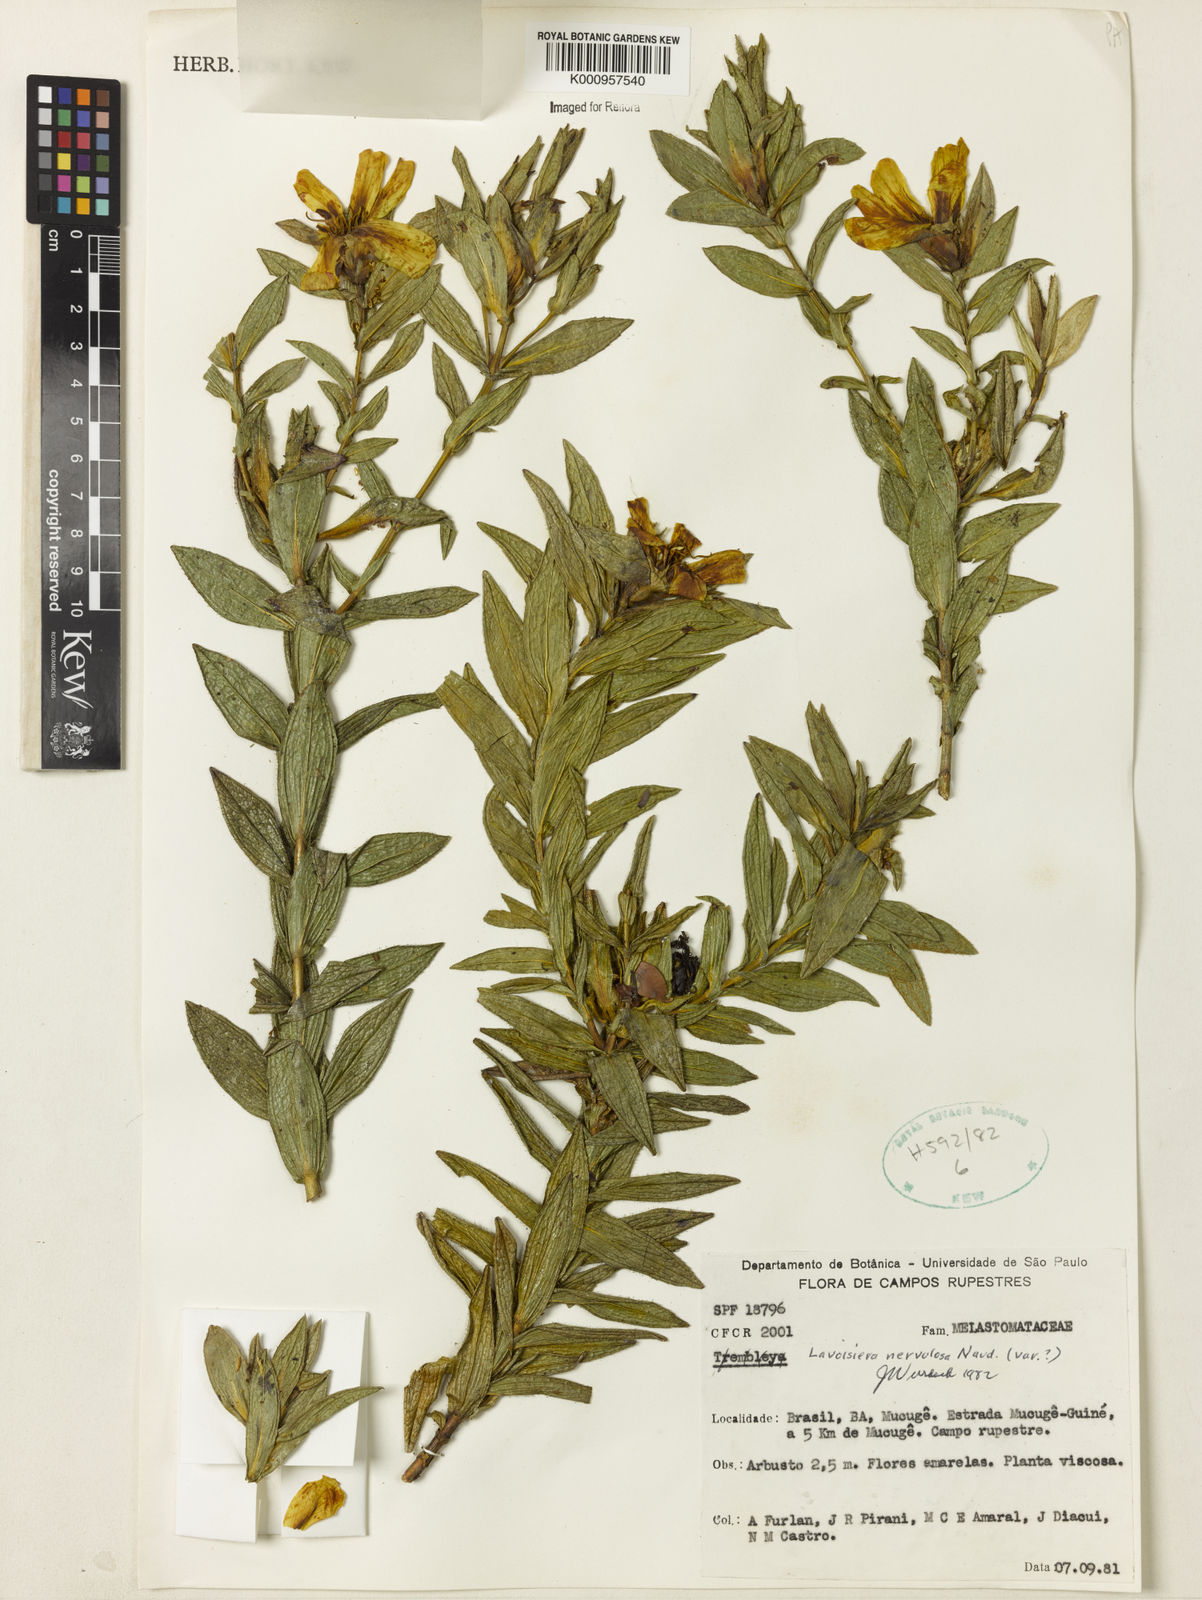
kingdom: Plantae
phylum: Tracheophyta
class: Magnoliopsida
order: Myrtales
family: Melastomataceae
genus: Microlicia
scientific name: Microlicia nervulosa
